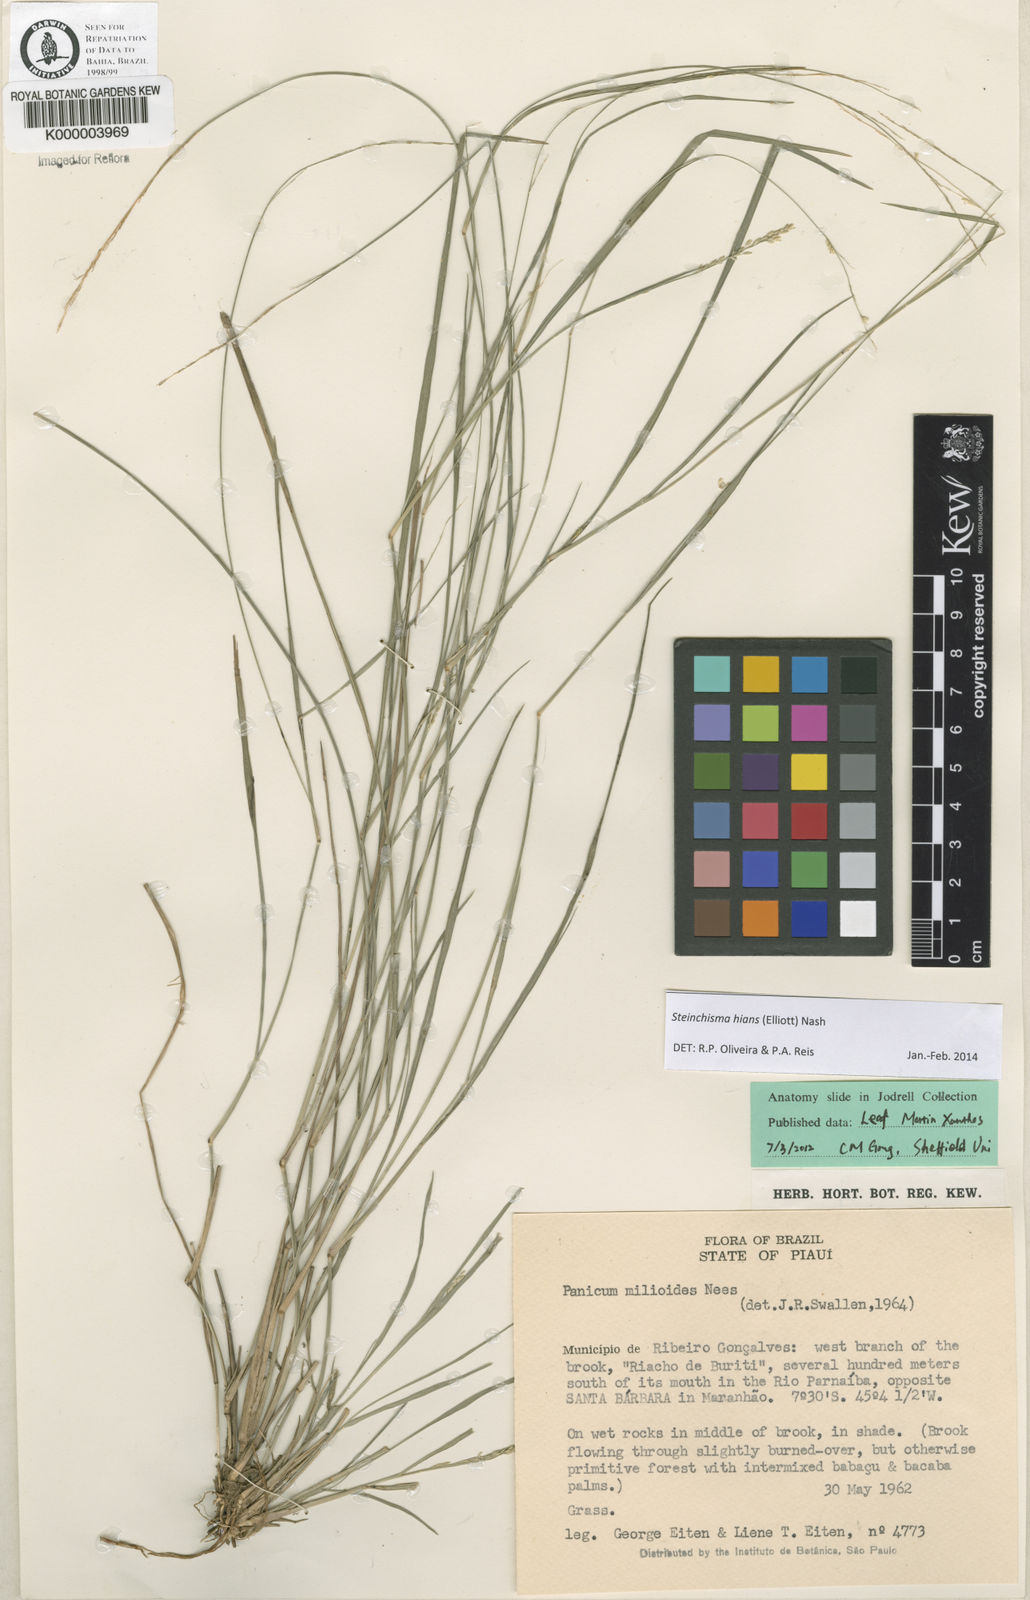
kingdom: Plantae
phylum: Tracheophyta
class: Liliopsida
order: Poales
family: Poaceae
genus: Steinchisma
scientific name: Steinchisma hians
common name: Gaping panic grass
